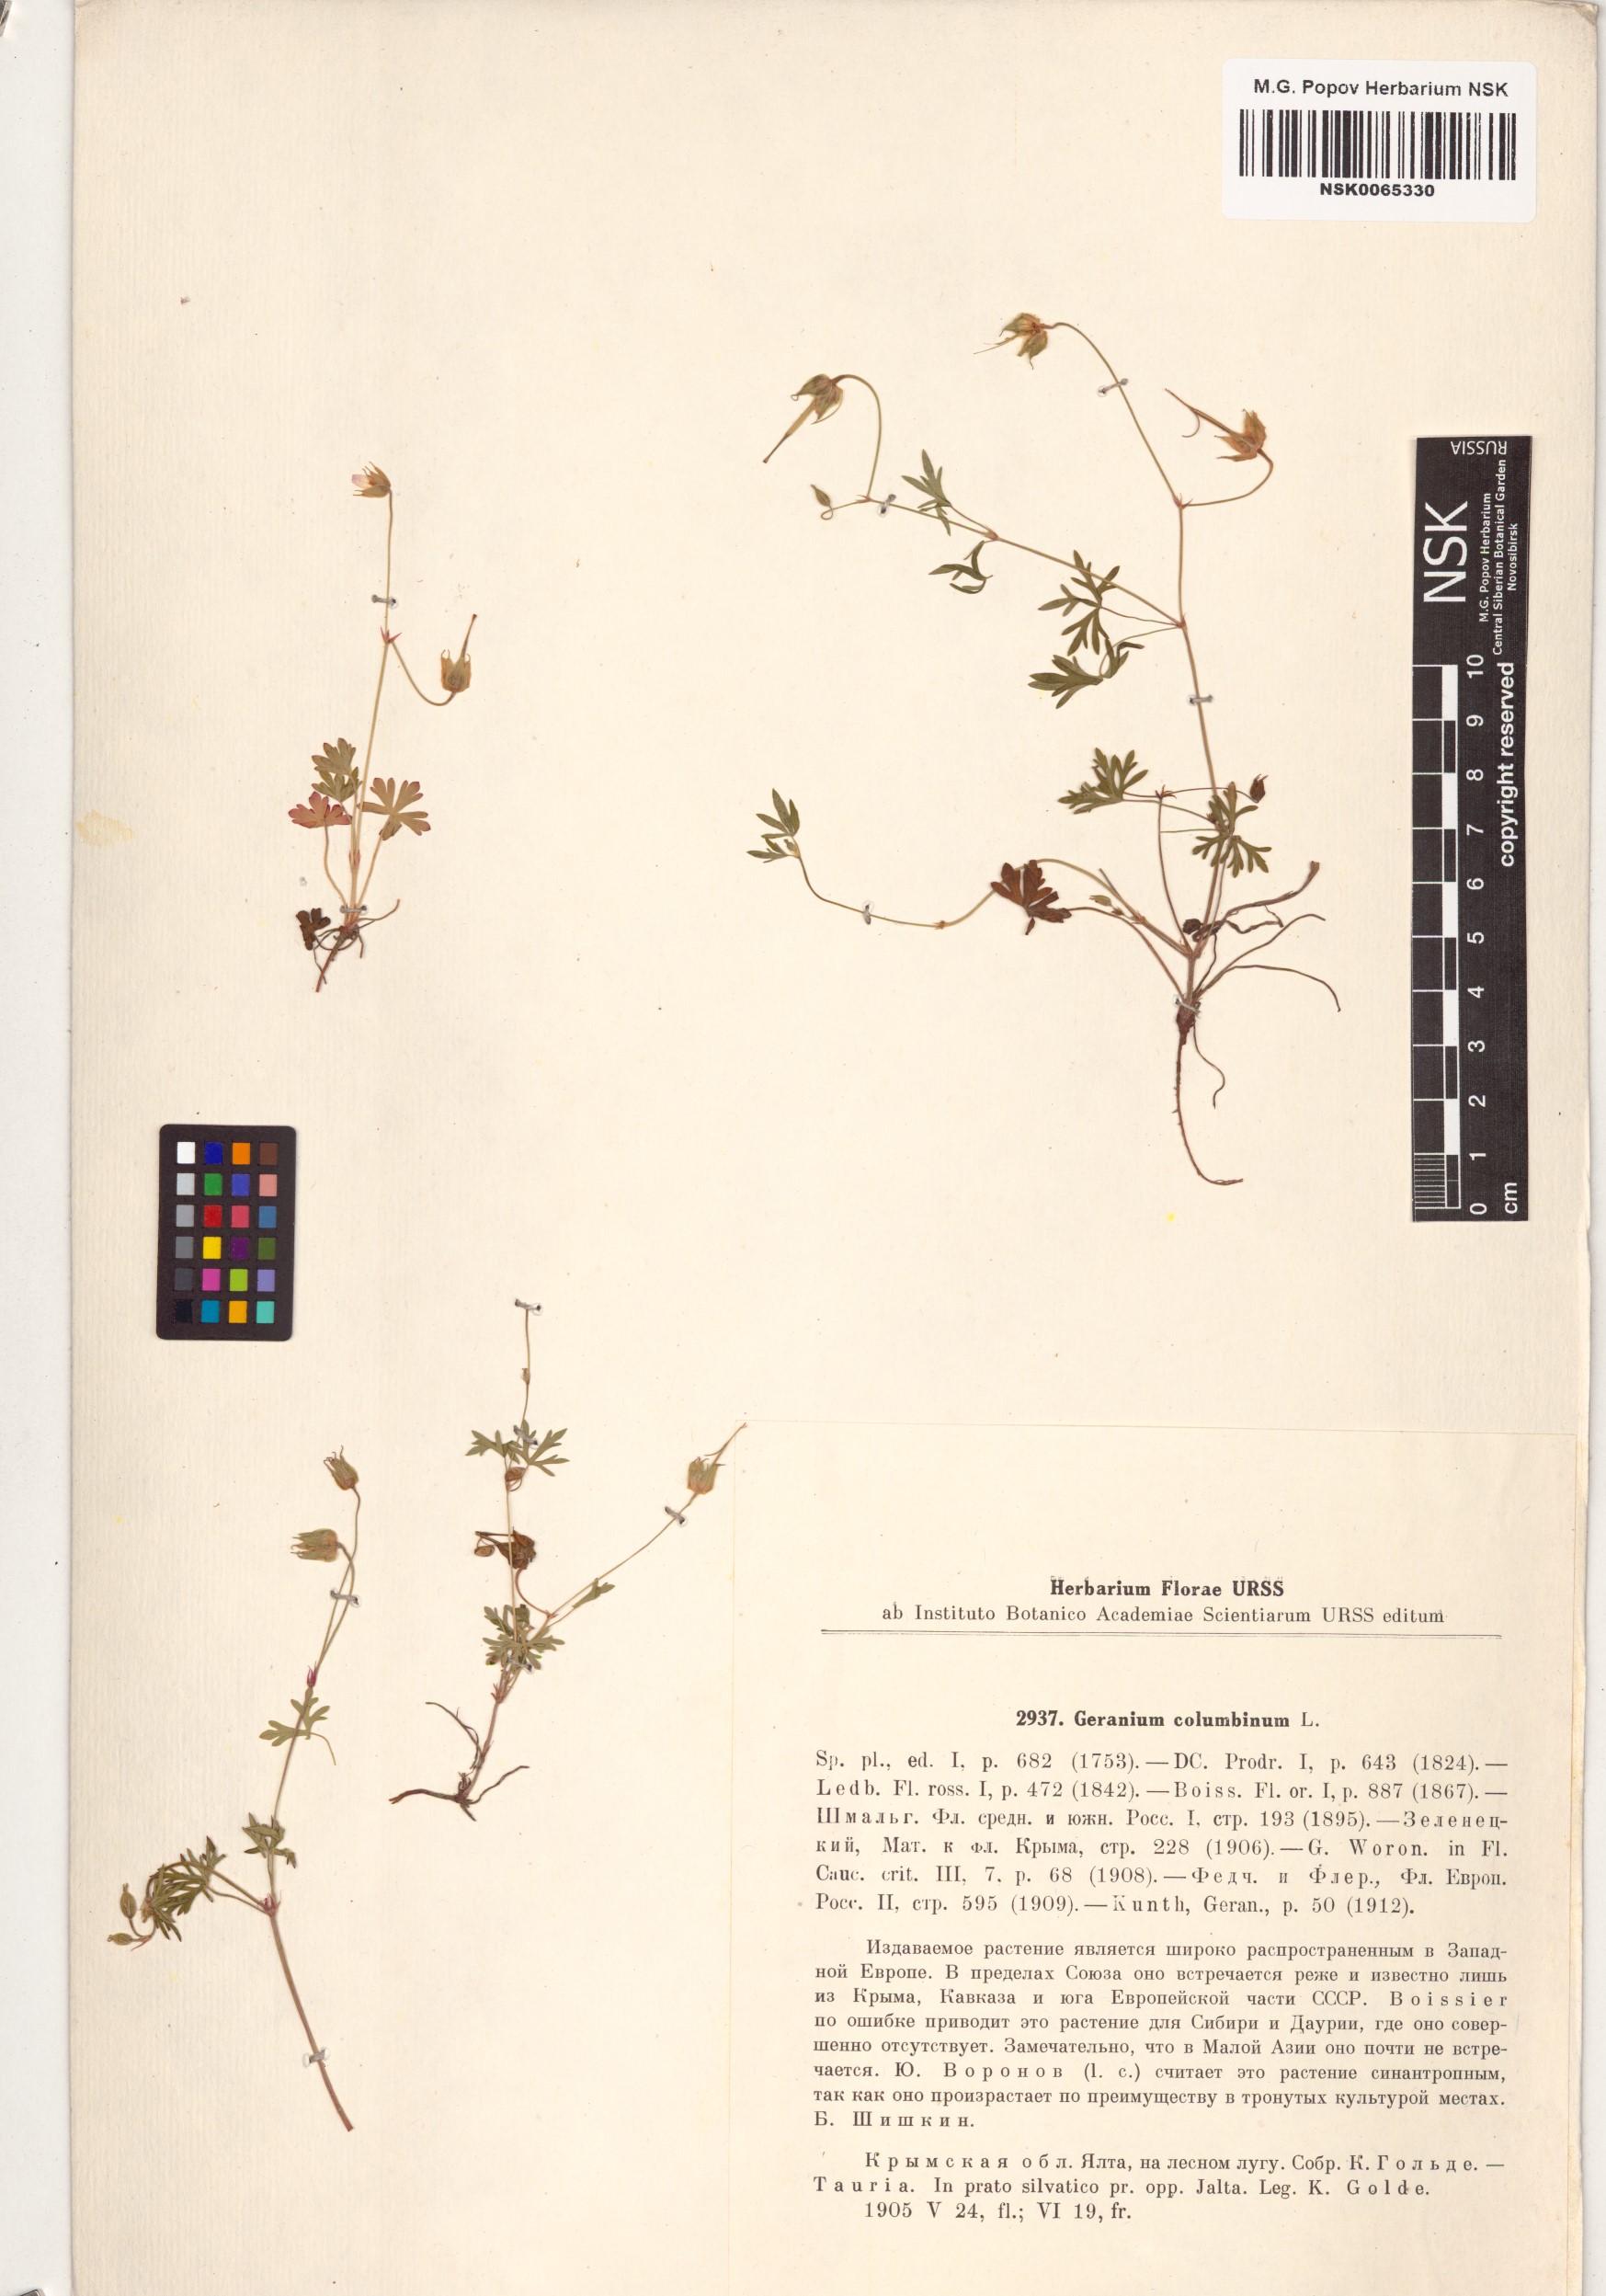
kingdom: Plantae
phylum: Tracheophyta
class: Magnoliopsida
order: Geraniales
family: Geraniaceae
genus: Geranium
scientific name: Geranium columbinum
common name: Long-stalked crane's-bill
